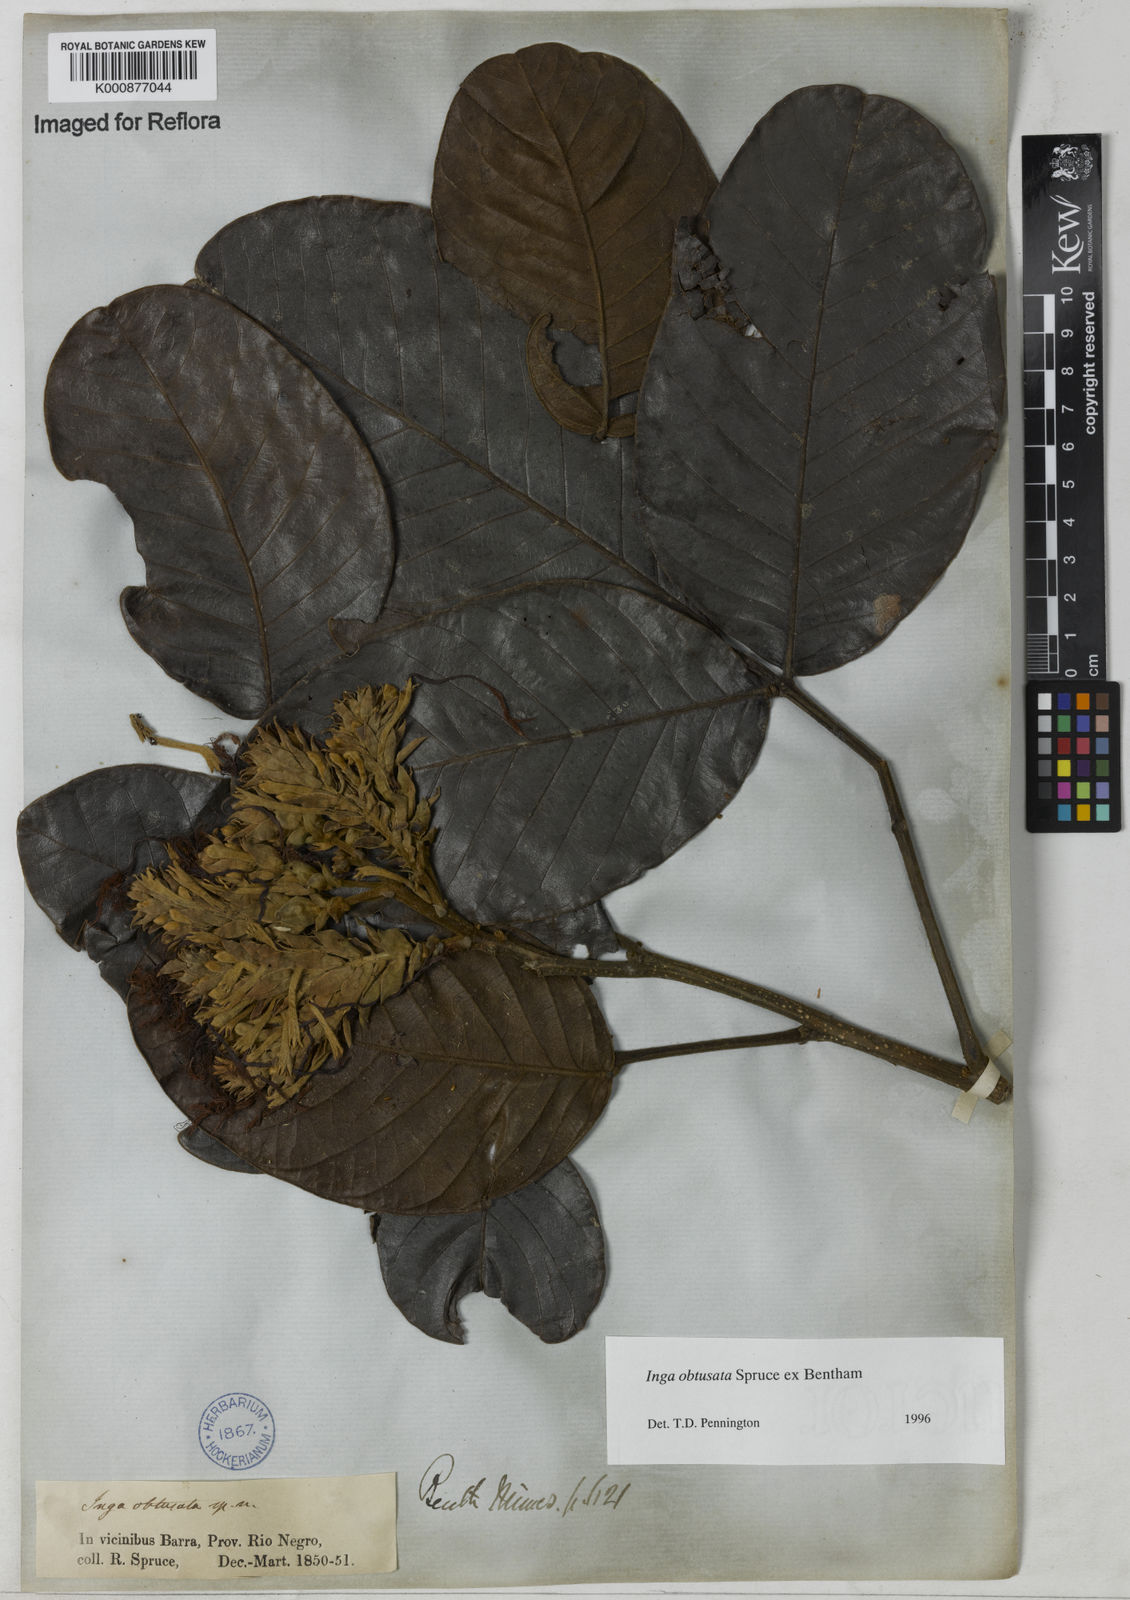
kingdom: Plantae
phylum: Tracheophyta
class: Magnoliopsida
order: Fabales
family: Fabaceae
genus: Inga
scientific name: Inga obtusata
